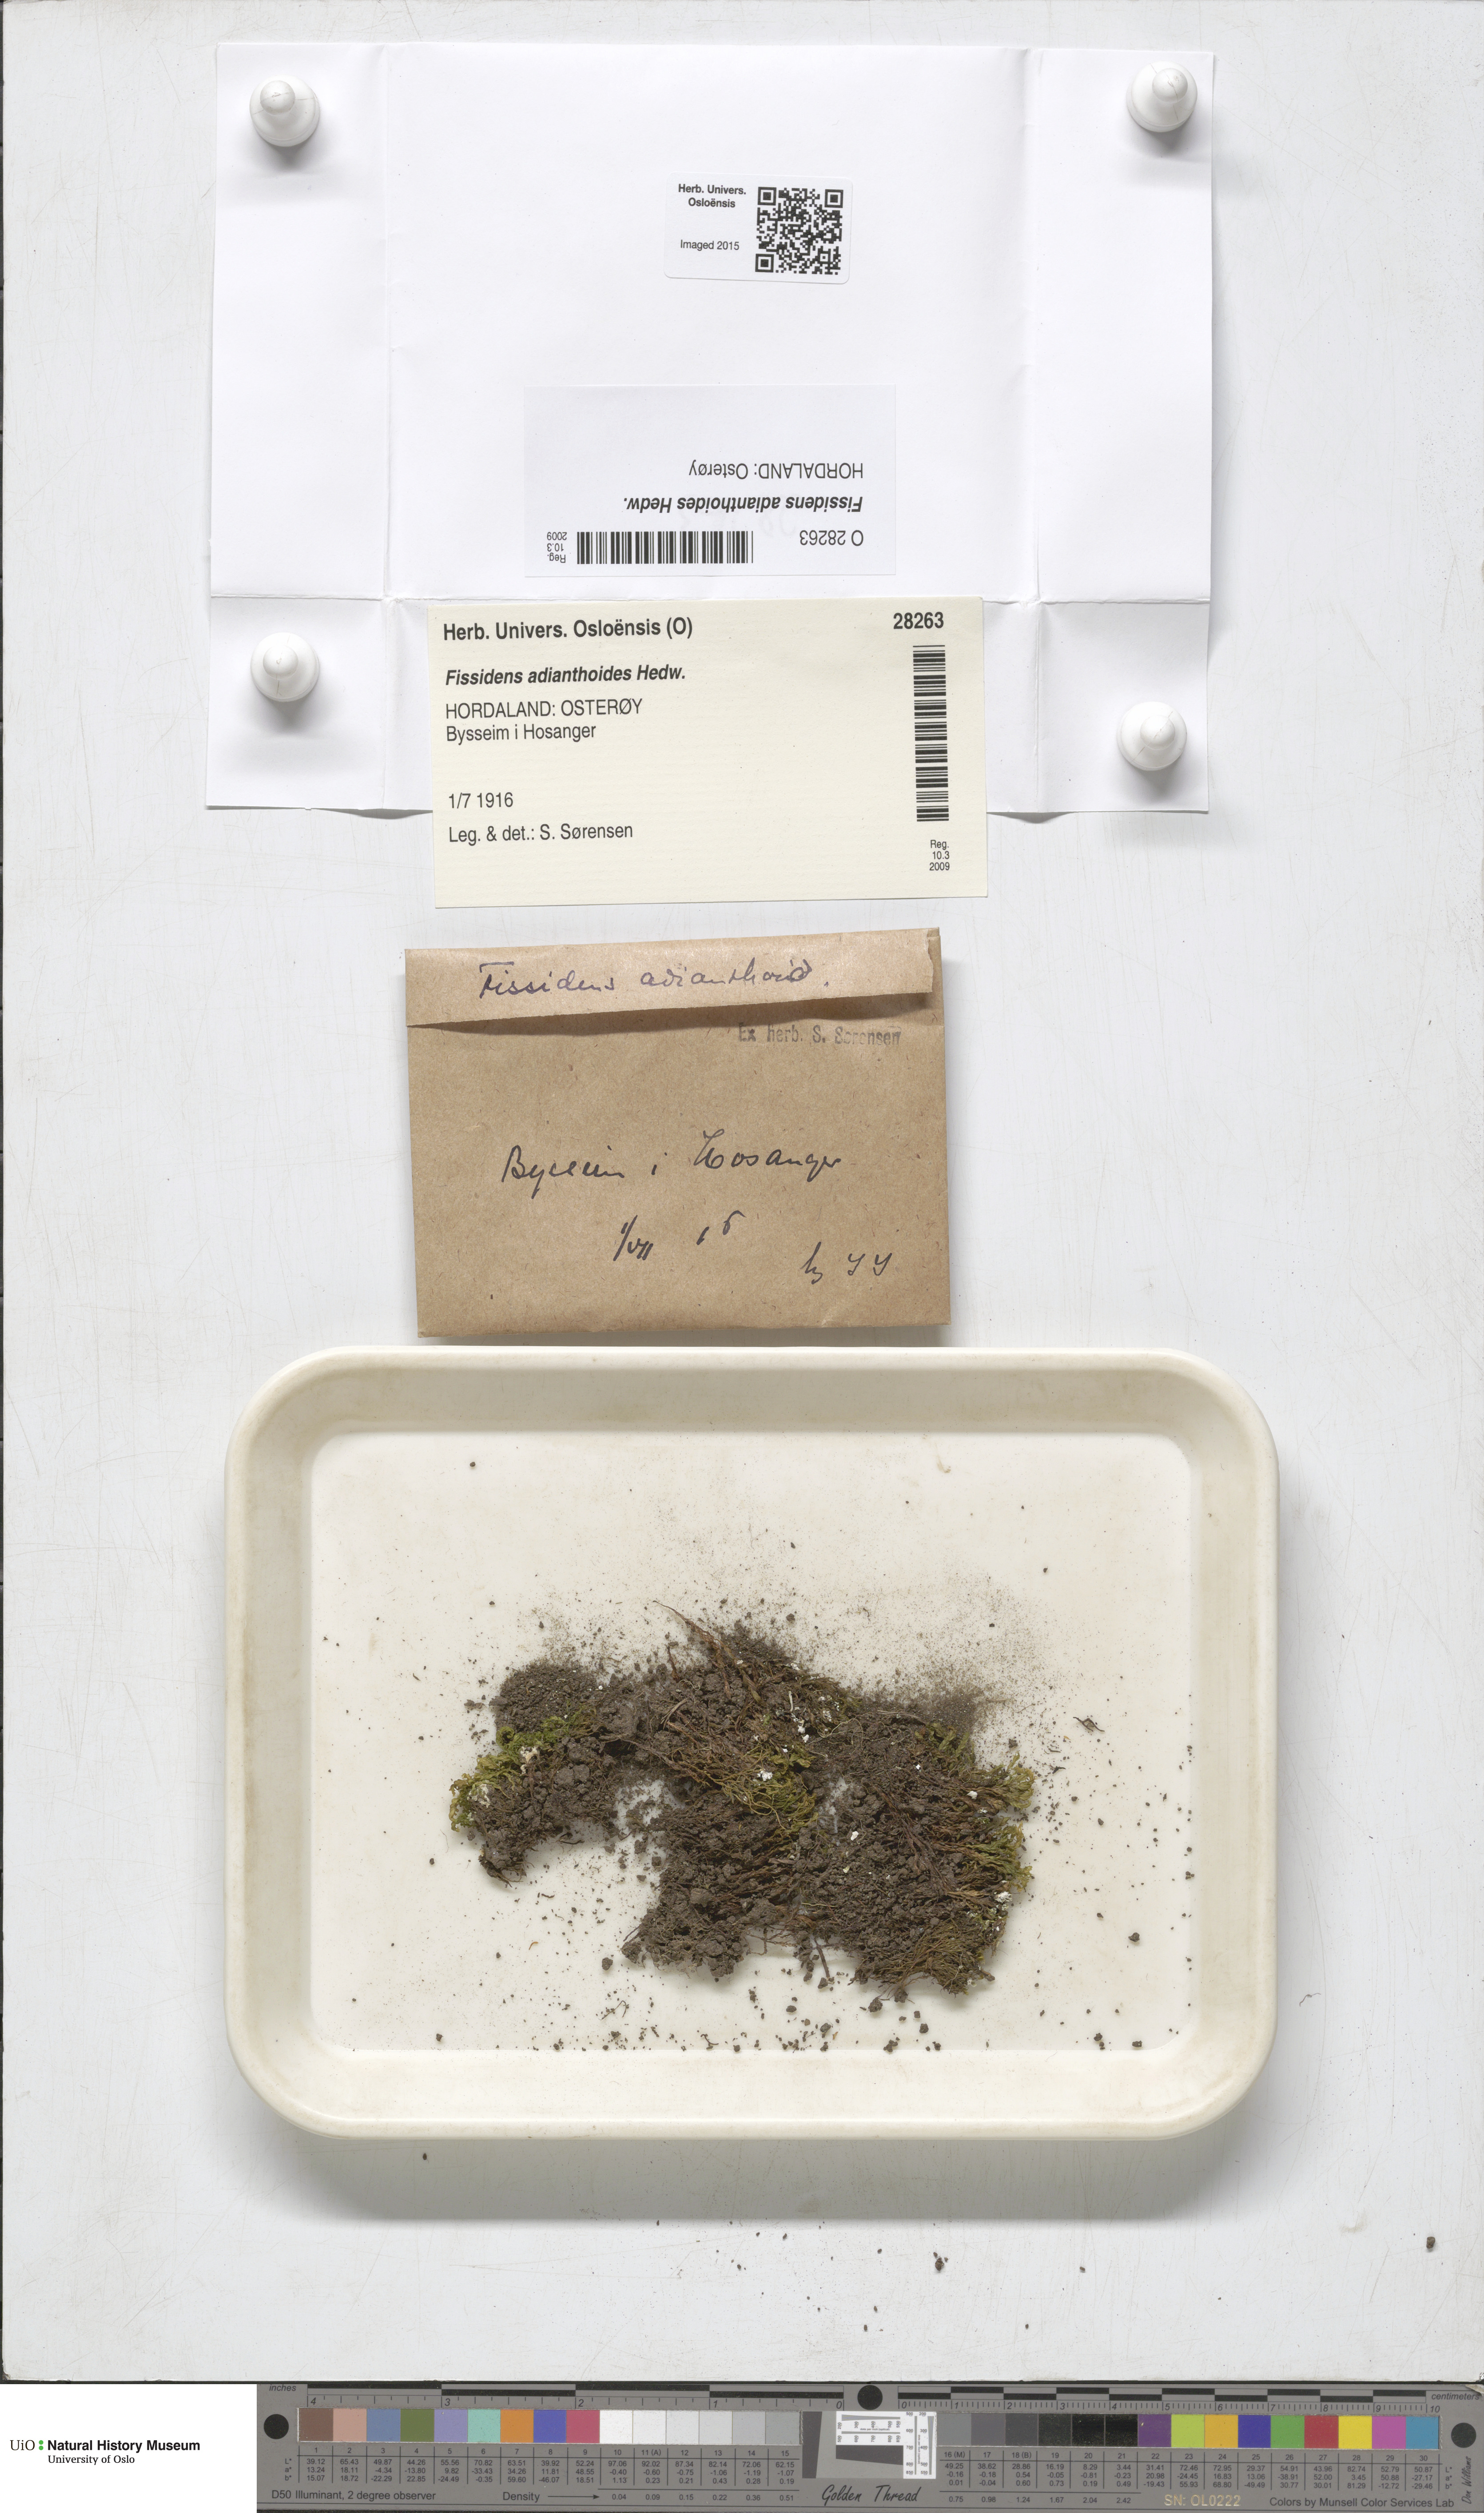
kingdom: Plantae
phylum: Bryophyta
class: Bryopsida
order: Dicranales
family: Fissidentaceae
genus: Fissidens
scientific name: Fissidens adianthoides
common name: Maidenhair pocket moss
